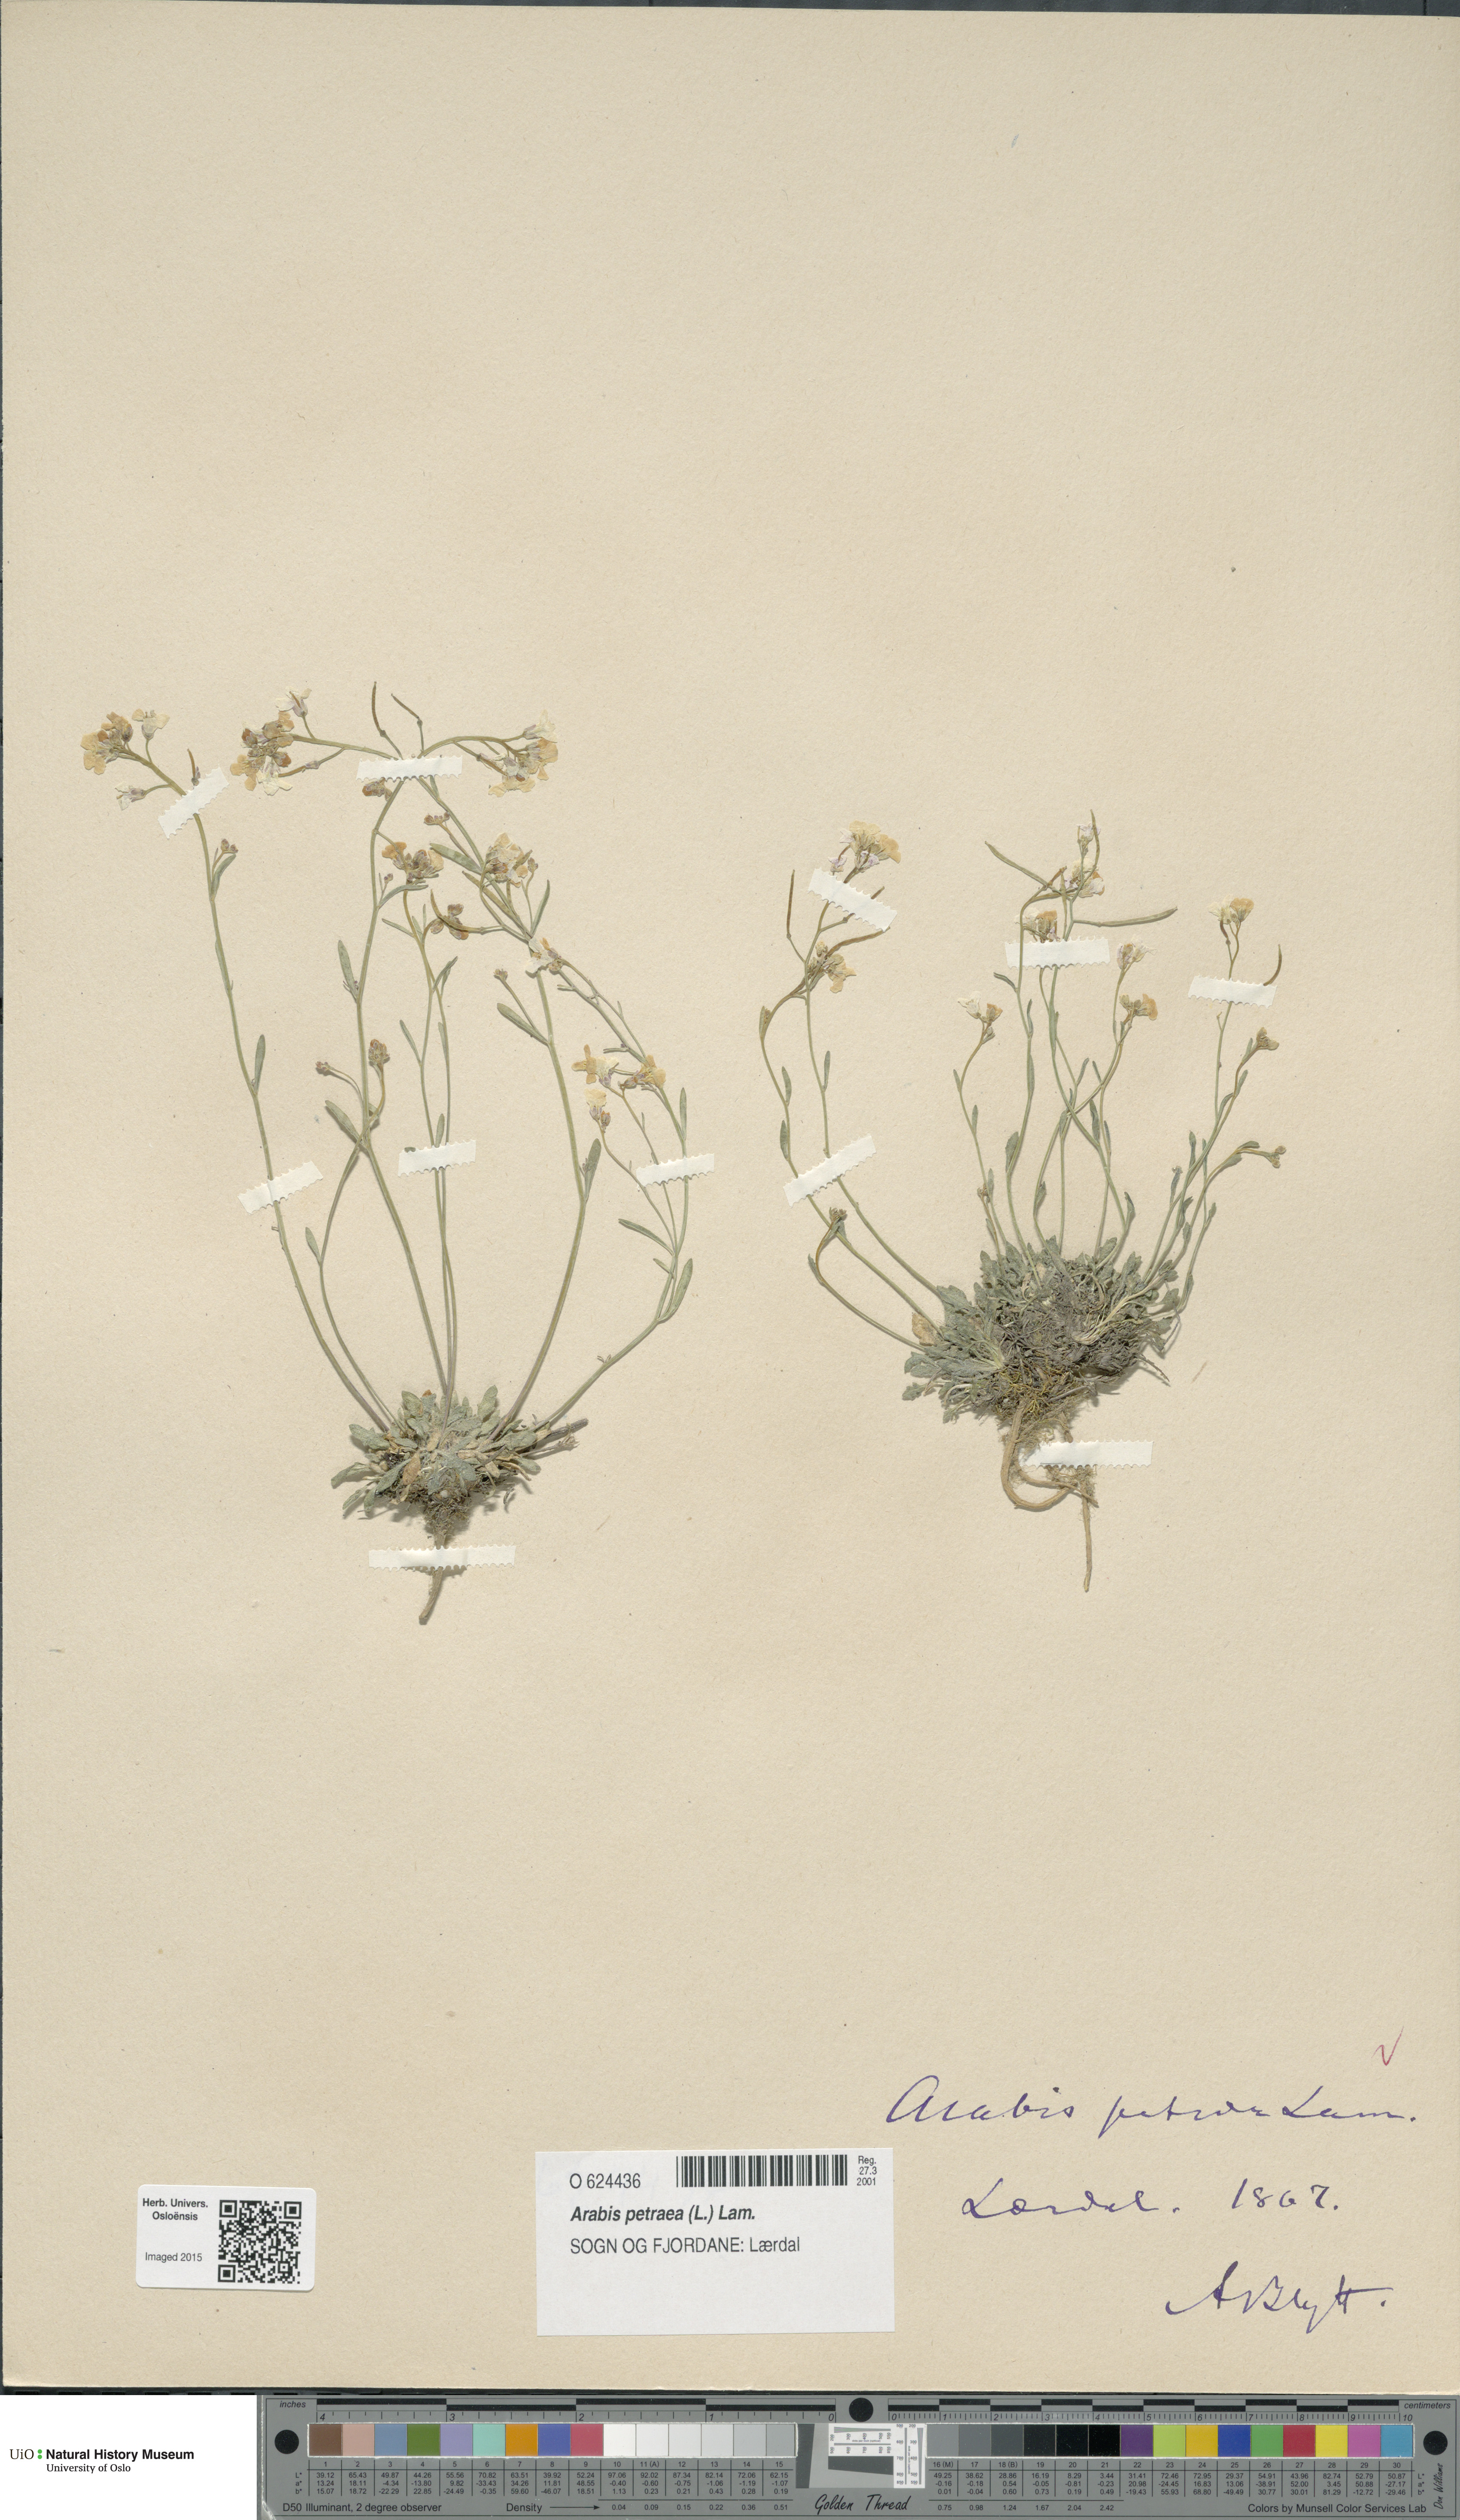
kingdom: Plantae
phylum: Tracheophyta
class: Magnoliopsida
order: Brassicales
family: Brassicaceae
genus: Arabidopsis
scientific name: Arabidopsis petraea
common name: Northern rock-cress
